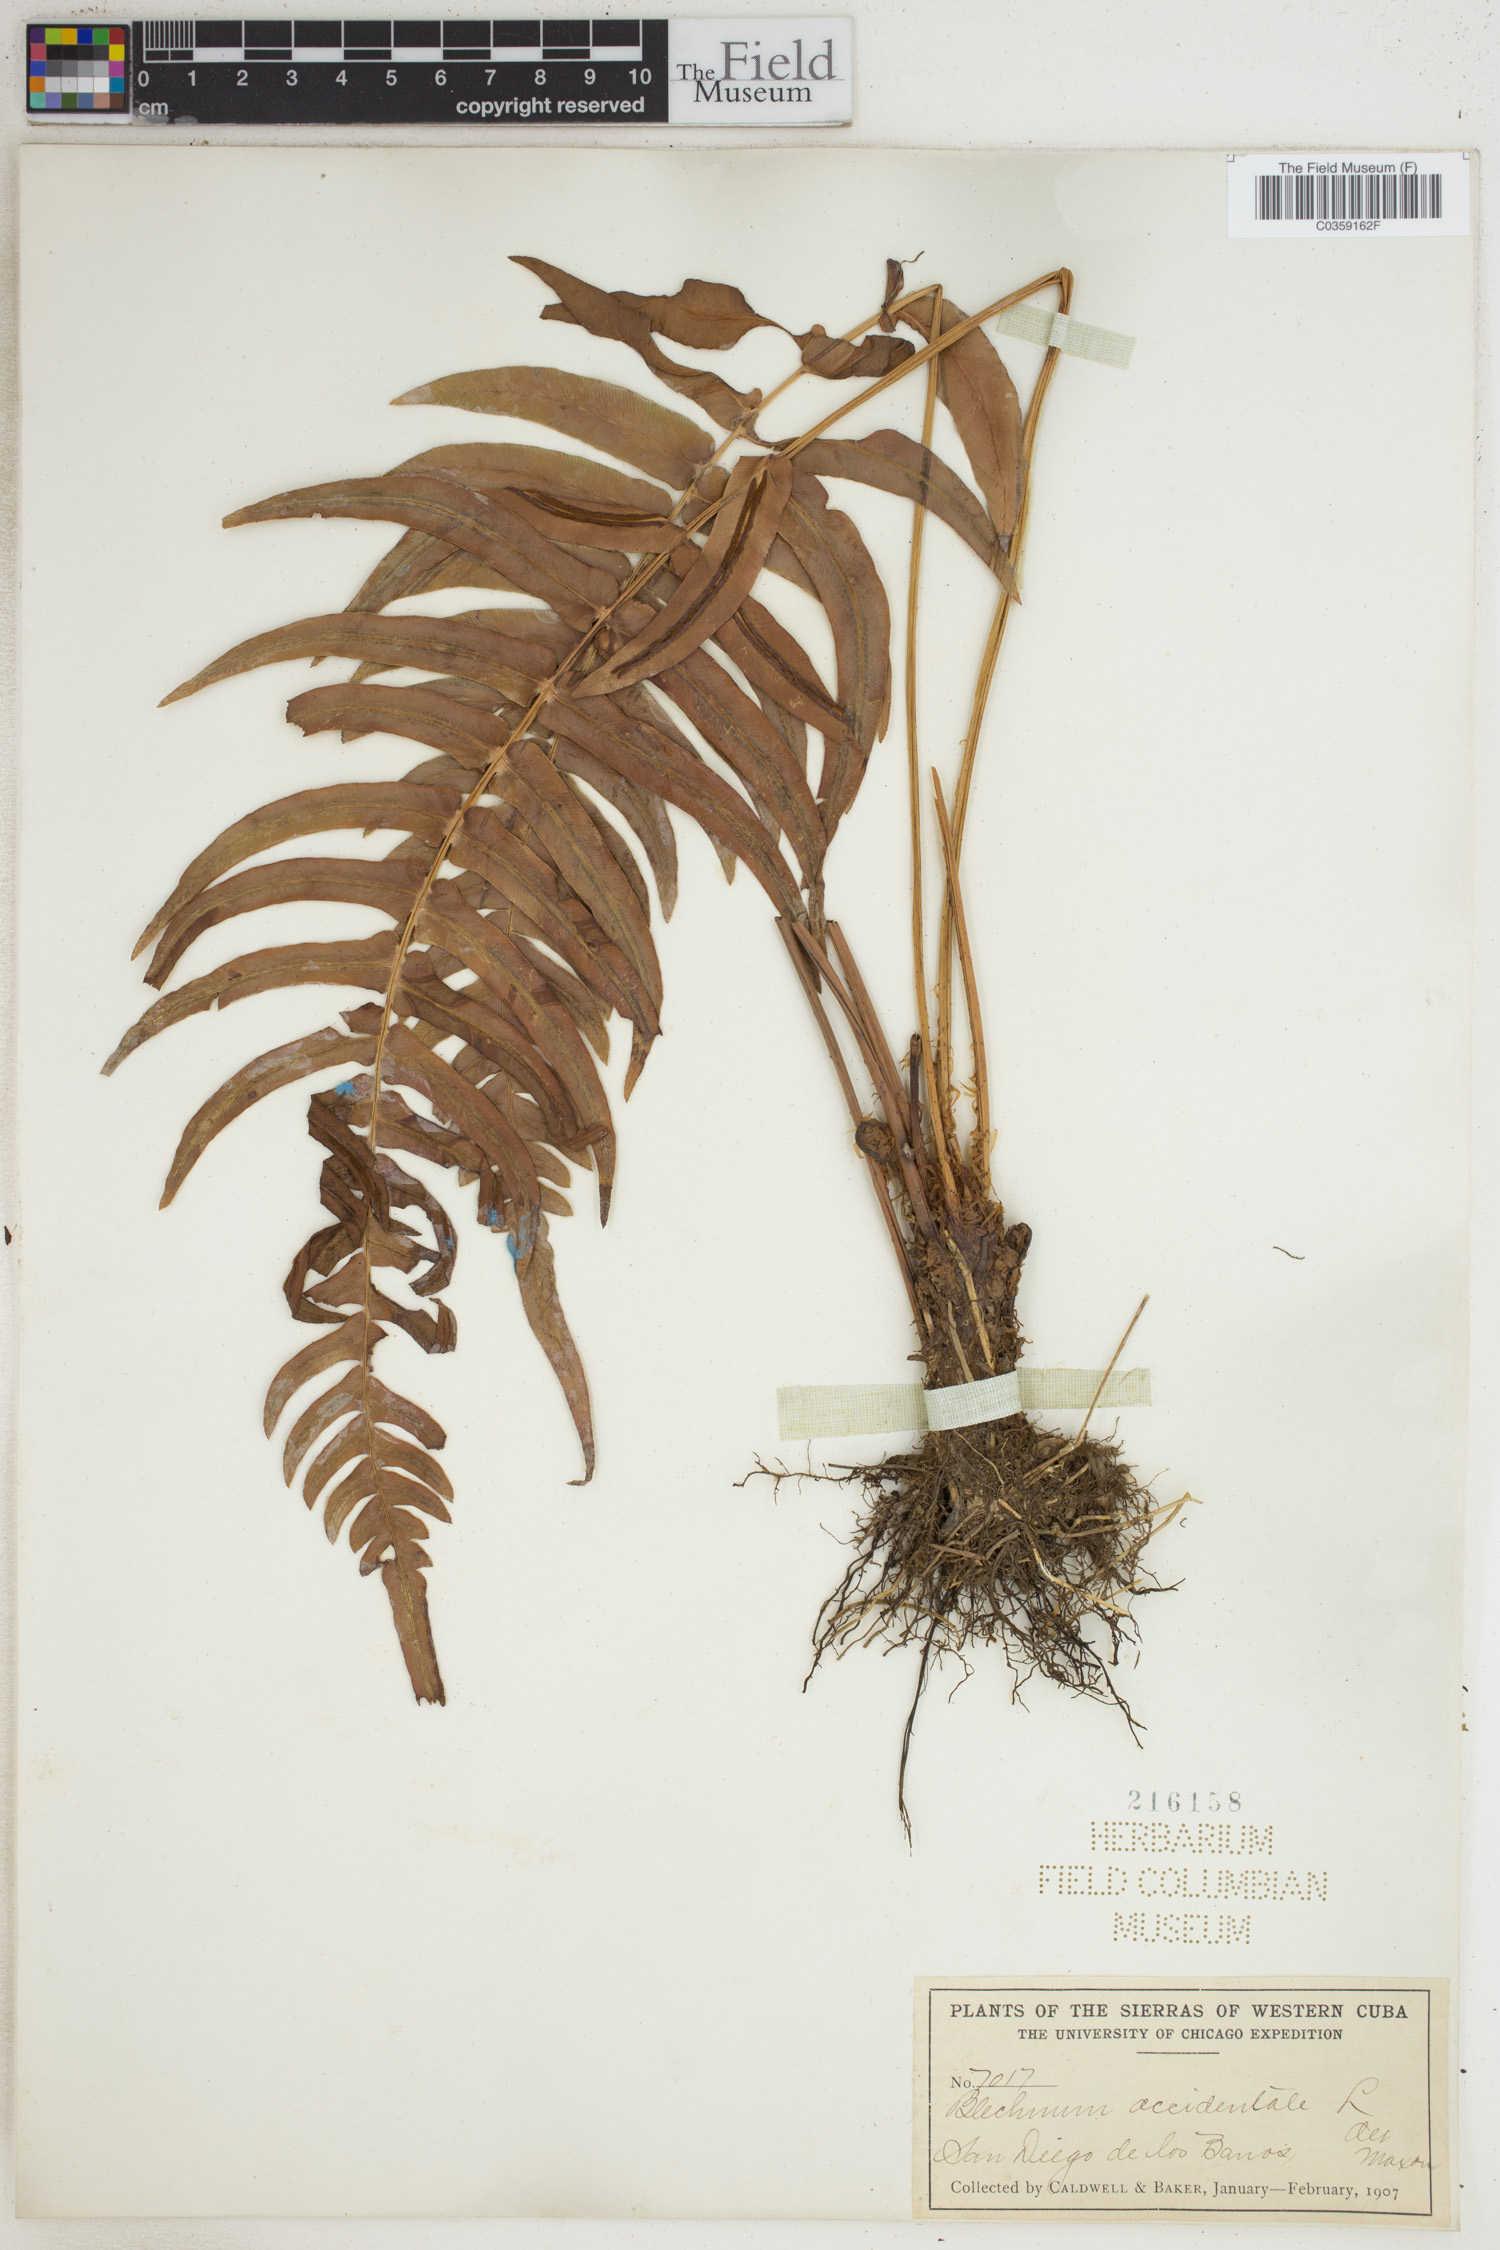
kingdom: Plantae
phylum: Tracheophyta
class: Polypodiopsida
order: Polypodiales
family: Blechnaceae
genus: Blechnum
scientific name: Blechnum occidentale
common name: Hammock fern
